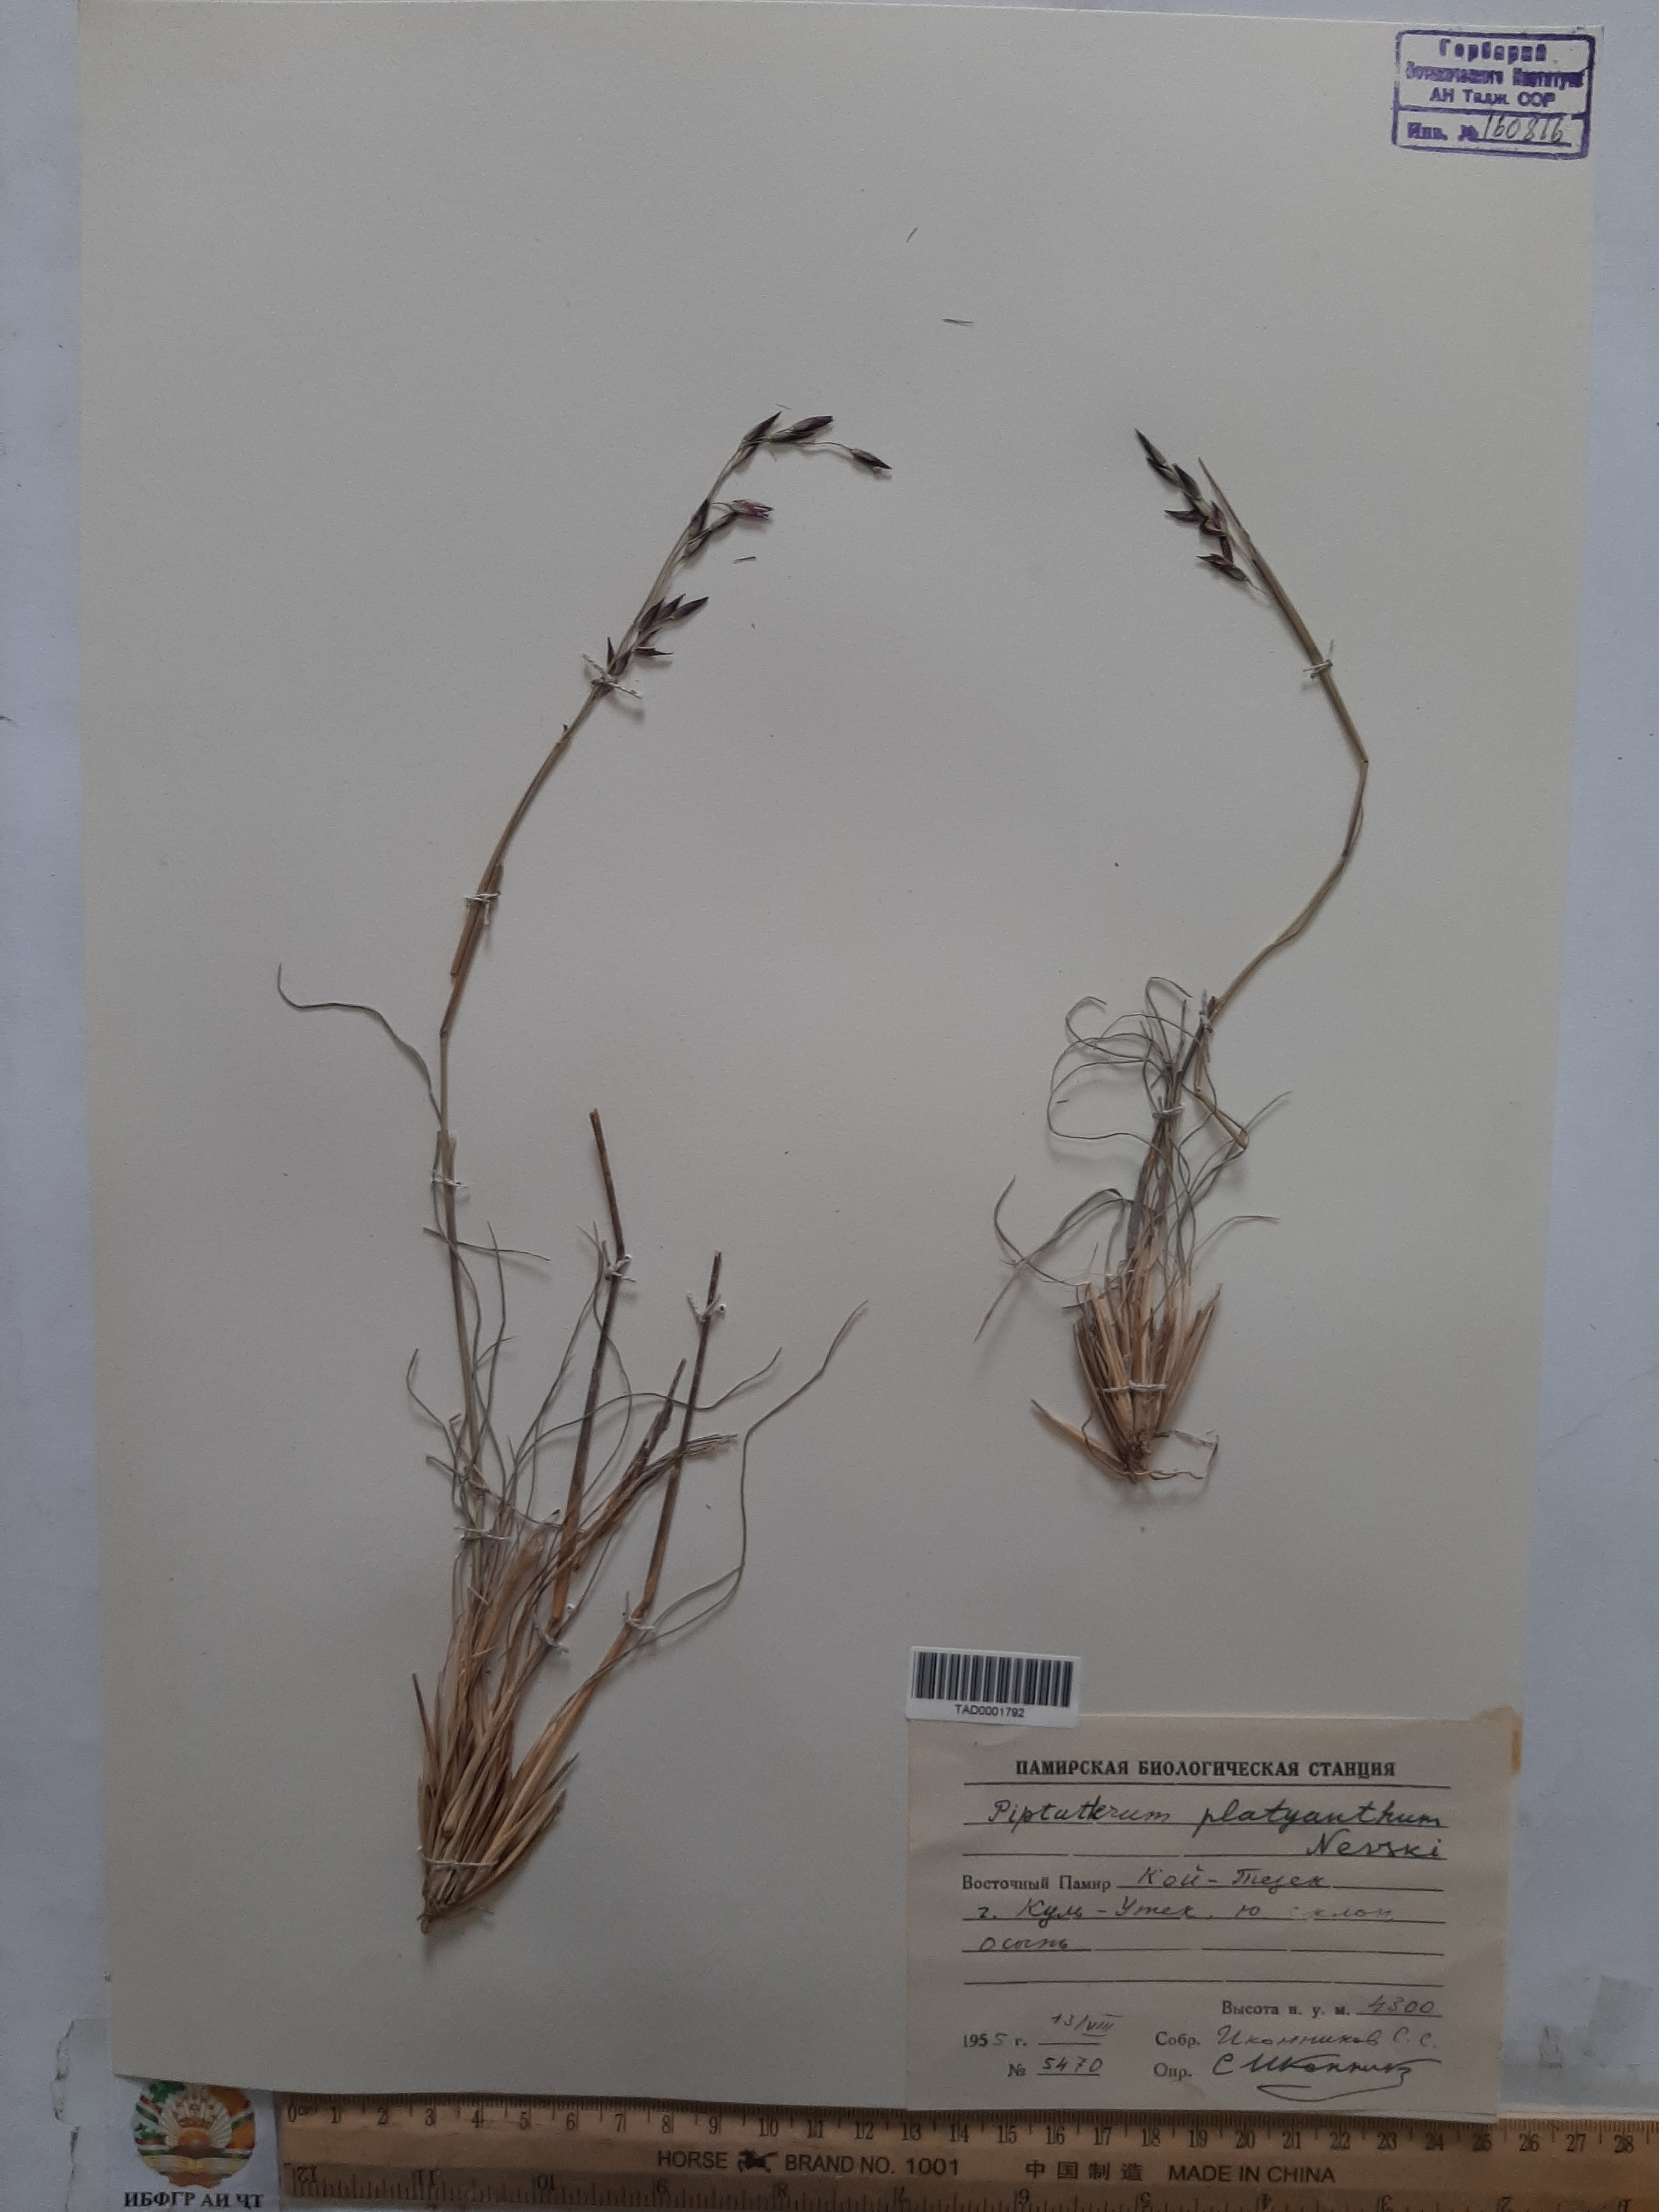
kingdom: Plantae
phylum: Tracheophyta
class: Liliopsida
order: Poales
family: Poaceae
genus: Piptatherum
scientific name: Piptatherum platyanthum
